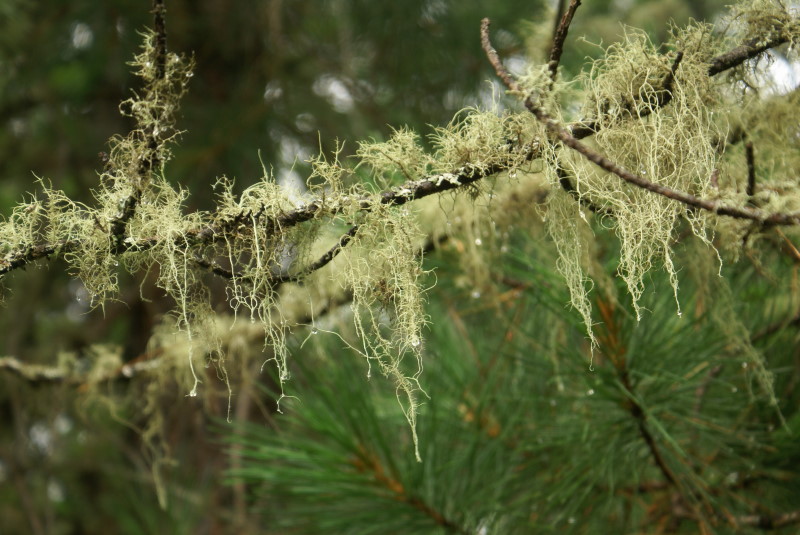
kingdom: Fungi
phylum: Ascomycota
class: Lecanoromycetes
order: Lecanorales
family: Parmeliaceae
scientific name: Parmeliaceae
